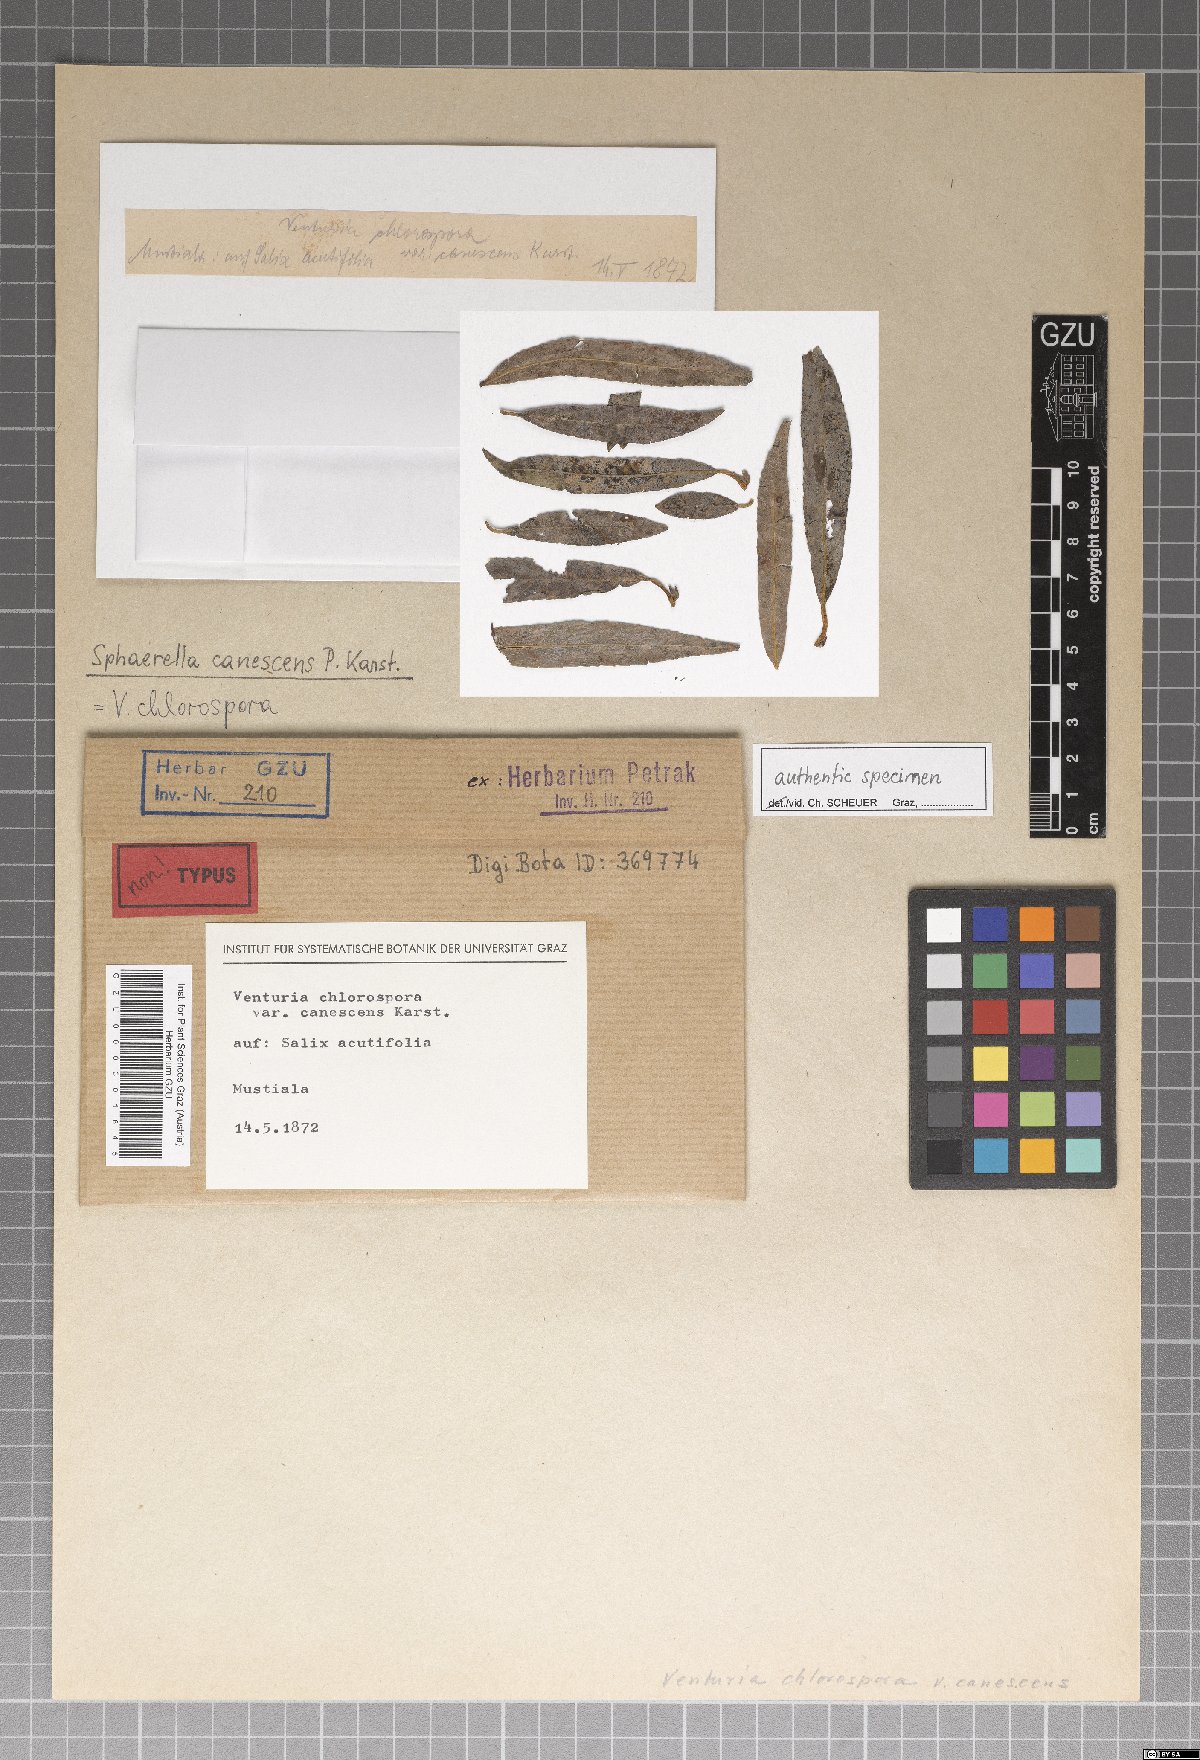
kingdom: Fungi
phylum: Ascomycota
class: Dothideomycetes
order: Mycosphaerellales
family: Mycosphaerellaceae
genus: Sphaerella
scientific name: Sphaerella
